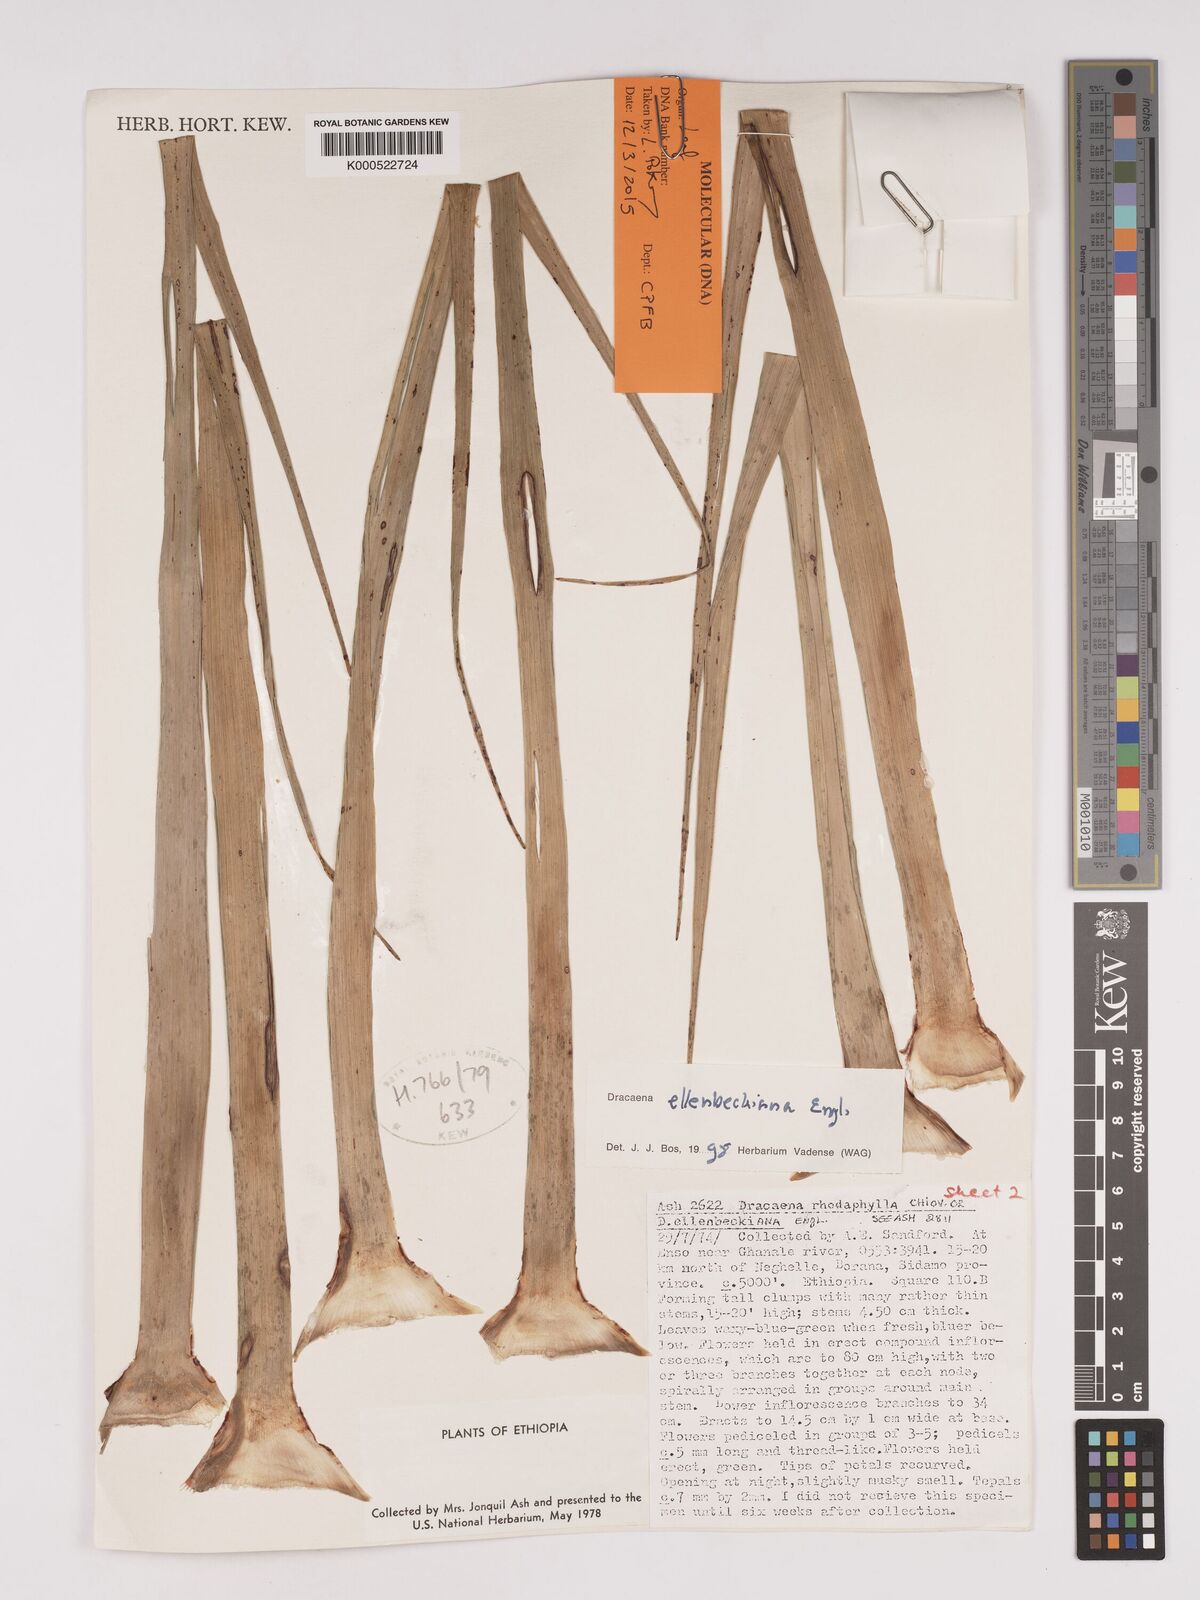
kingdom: Plantae
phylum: Tracheophyta
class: Liliopsida
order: Asparagales
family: Asparagaceae
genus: Dracaena
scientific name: Dracaena elliptica
